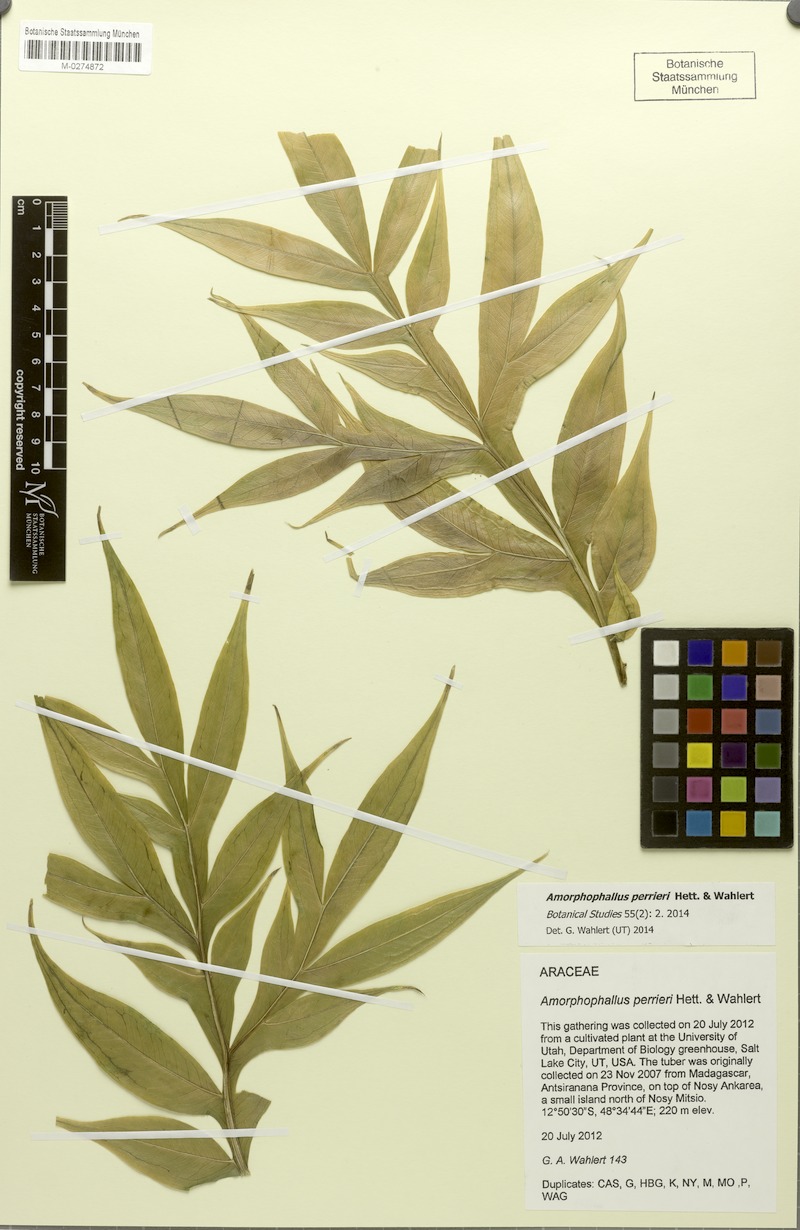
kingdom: Plantae
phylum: Tracheophyta
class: Liliopsida
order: Alismatales
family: Araceae
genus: Amorphophallus
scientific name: Amorphophallus perrieri
